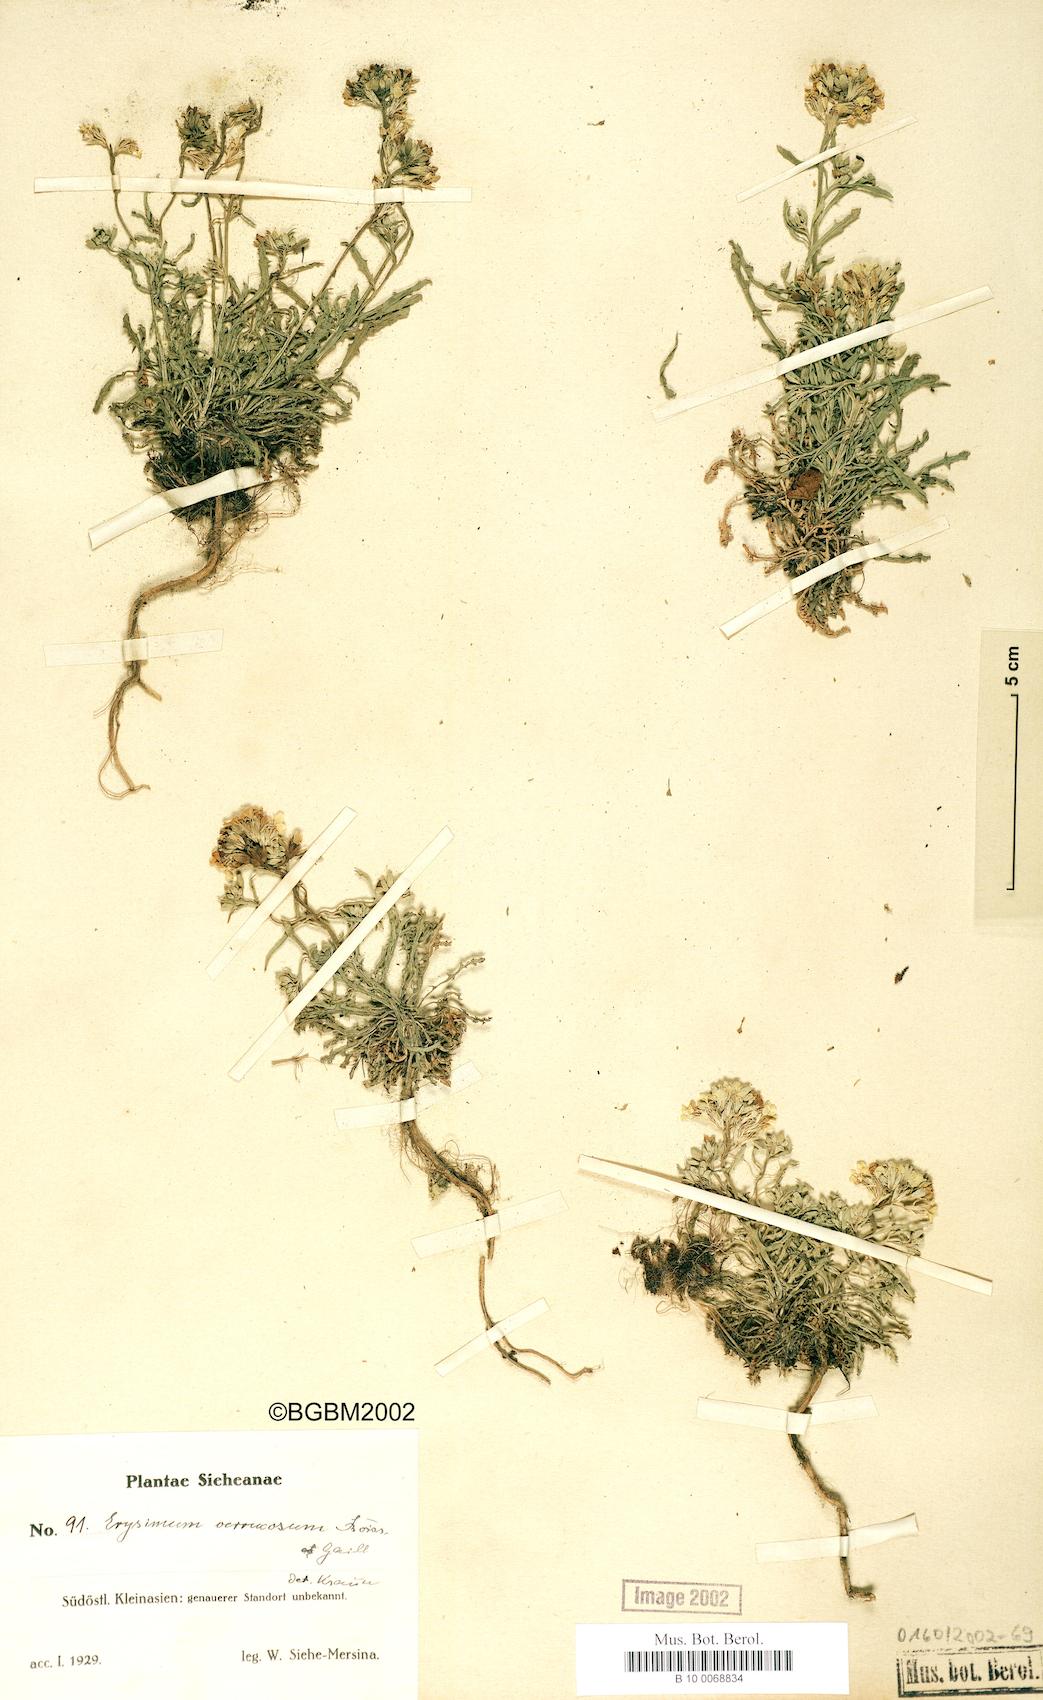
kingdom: Plantae
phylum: Tracheophyta
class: Magnoliopsida
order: Brassicales
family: Brassicaceae
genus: Erysimum
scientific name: Erysimum smyrnaeum
